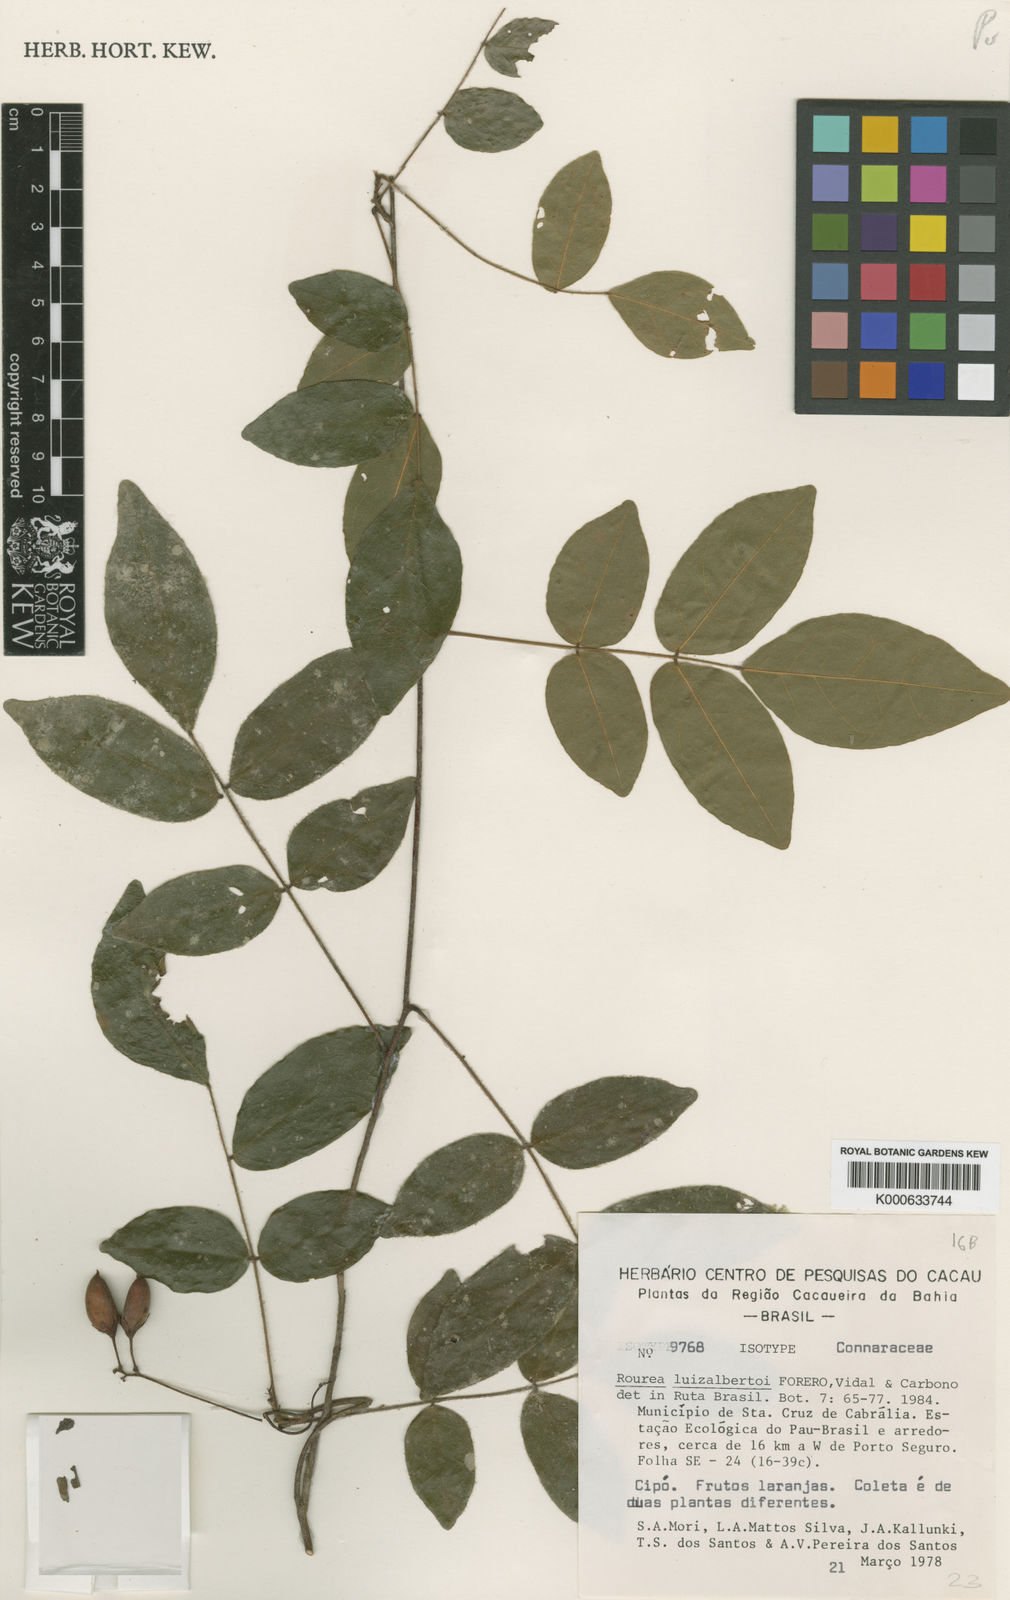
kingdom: Plantae
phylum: Tracheophyta
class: Magnoliopsida
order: Oxalidales
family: Connaraceae
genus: Rourea
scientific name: Rourea
